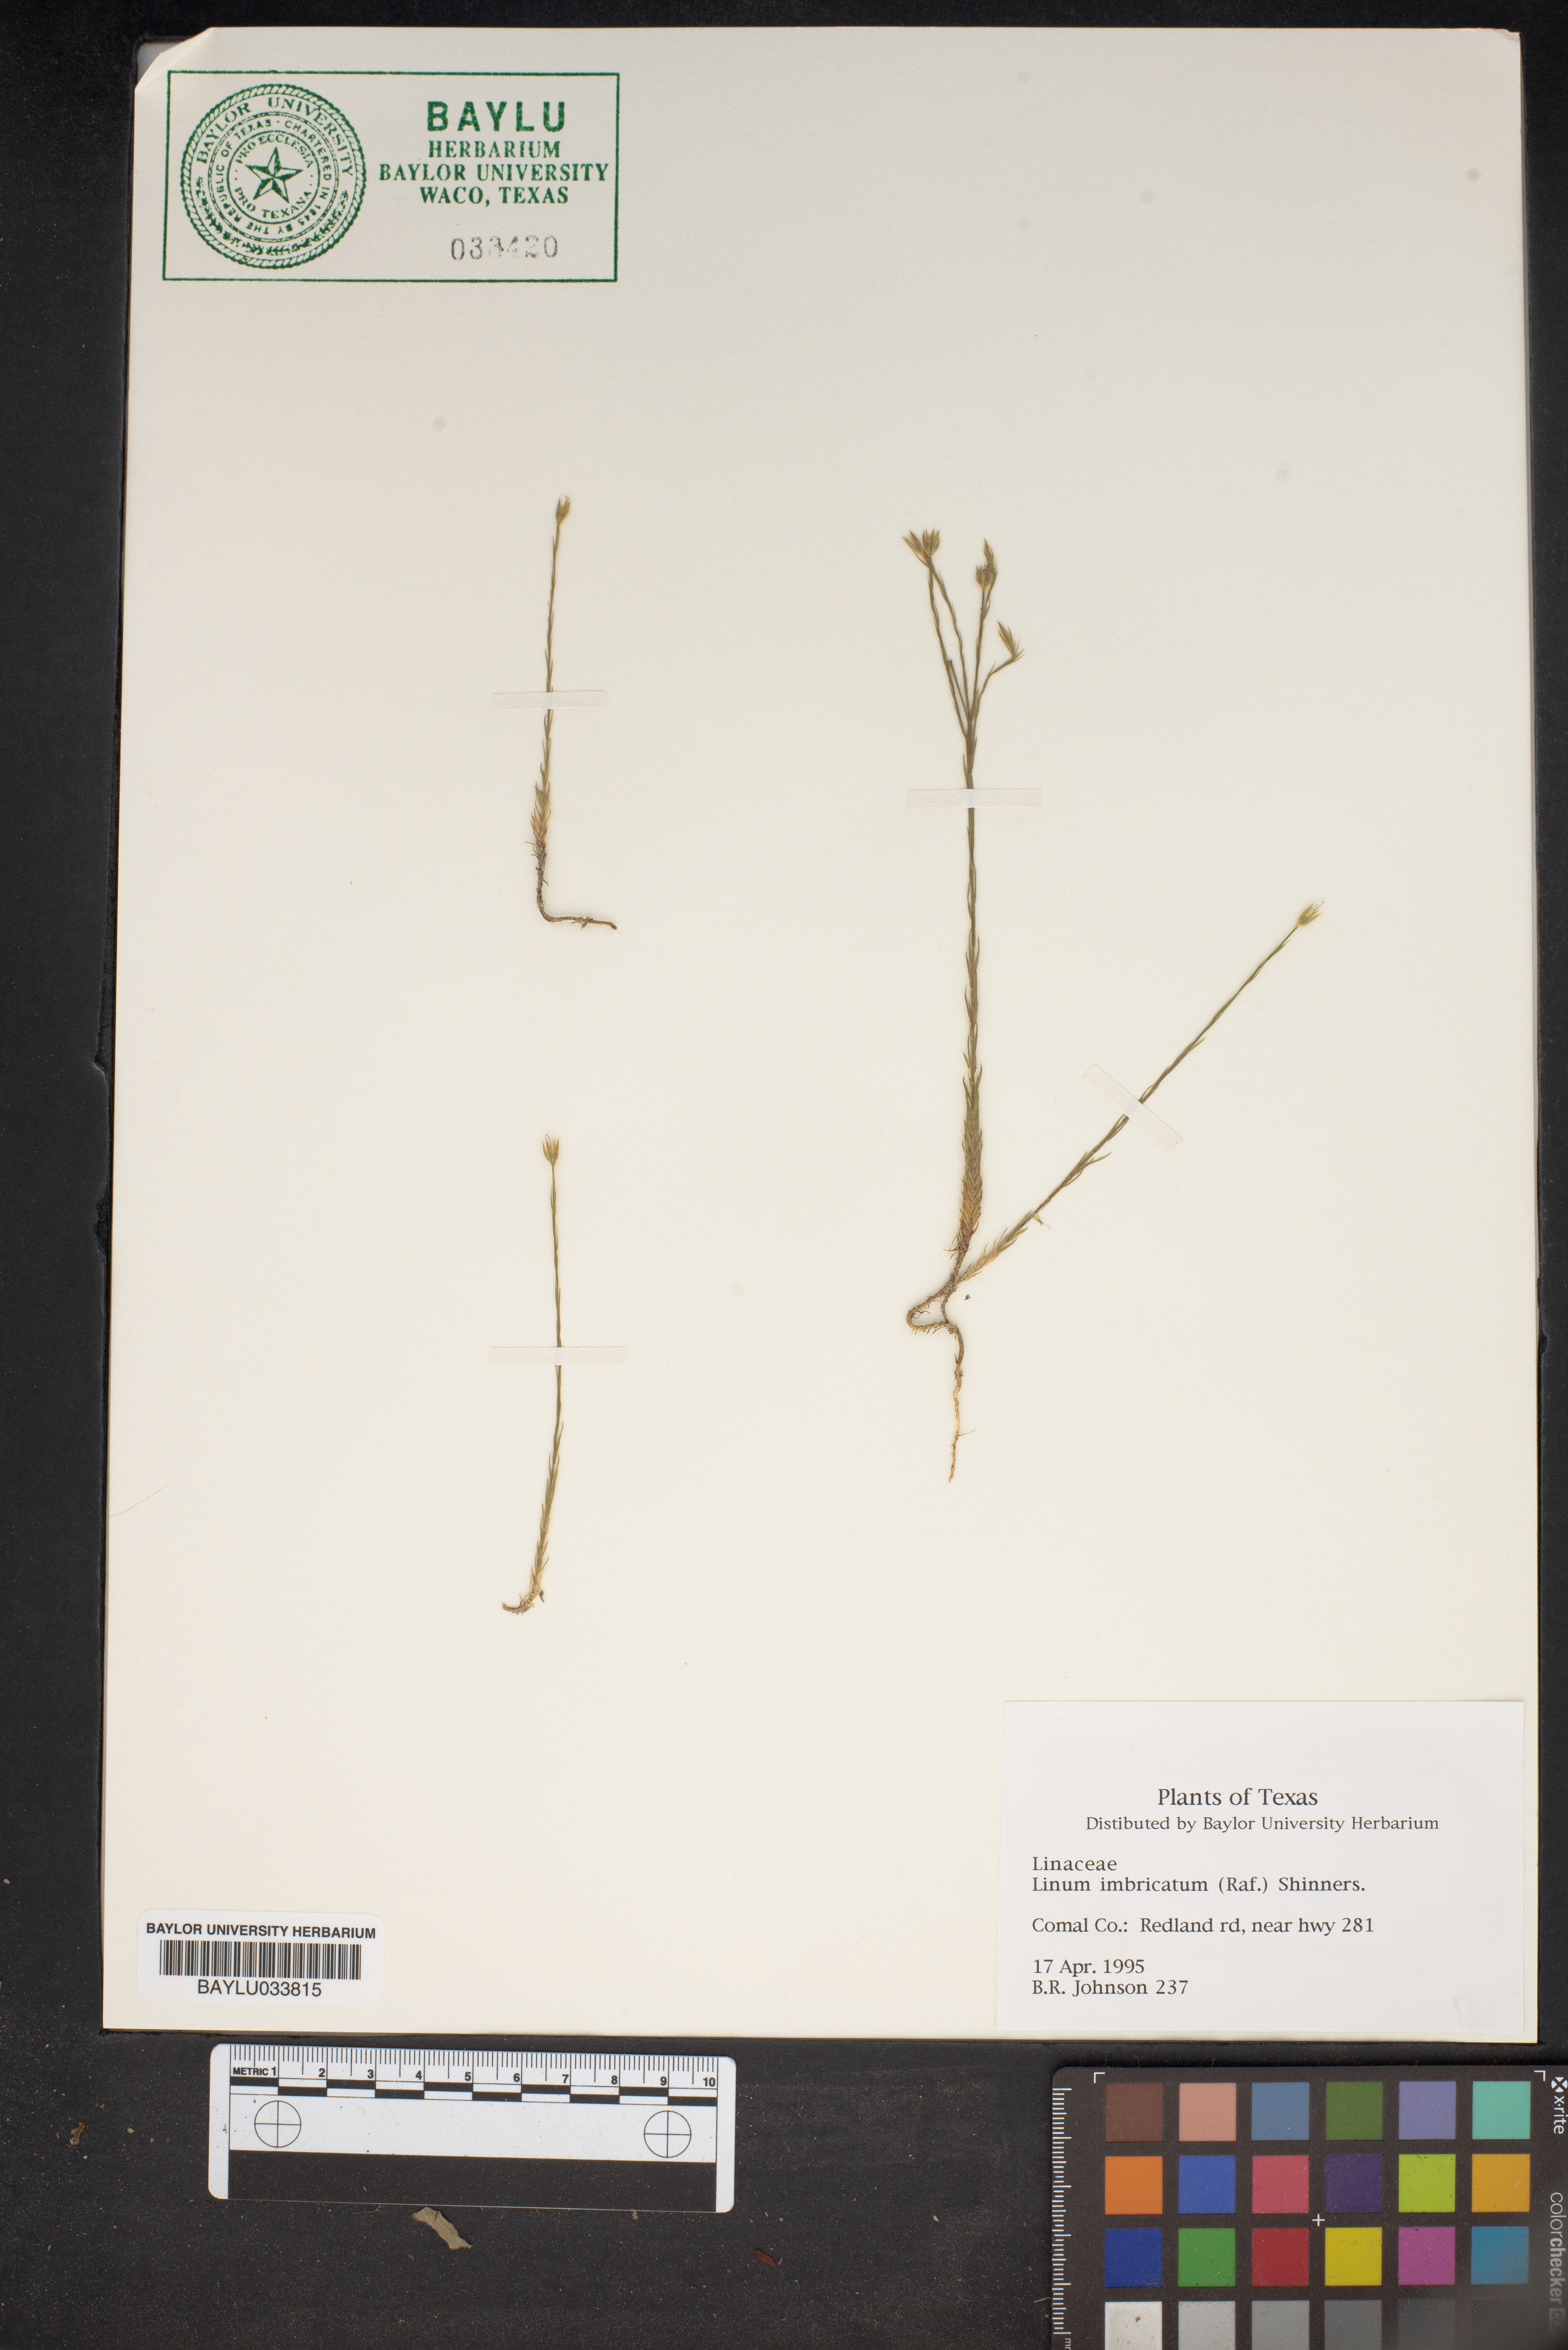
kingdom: Plantae
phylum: Tracheophyta
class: Magnoliopsida
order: Malpighiales
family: Linaceae
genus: Linum
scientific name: Linum imbricatum
